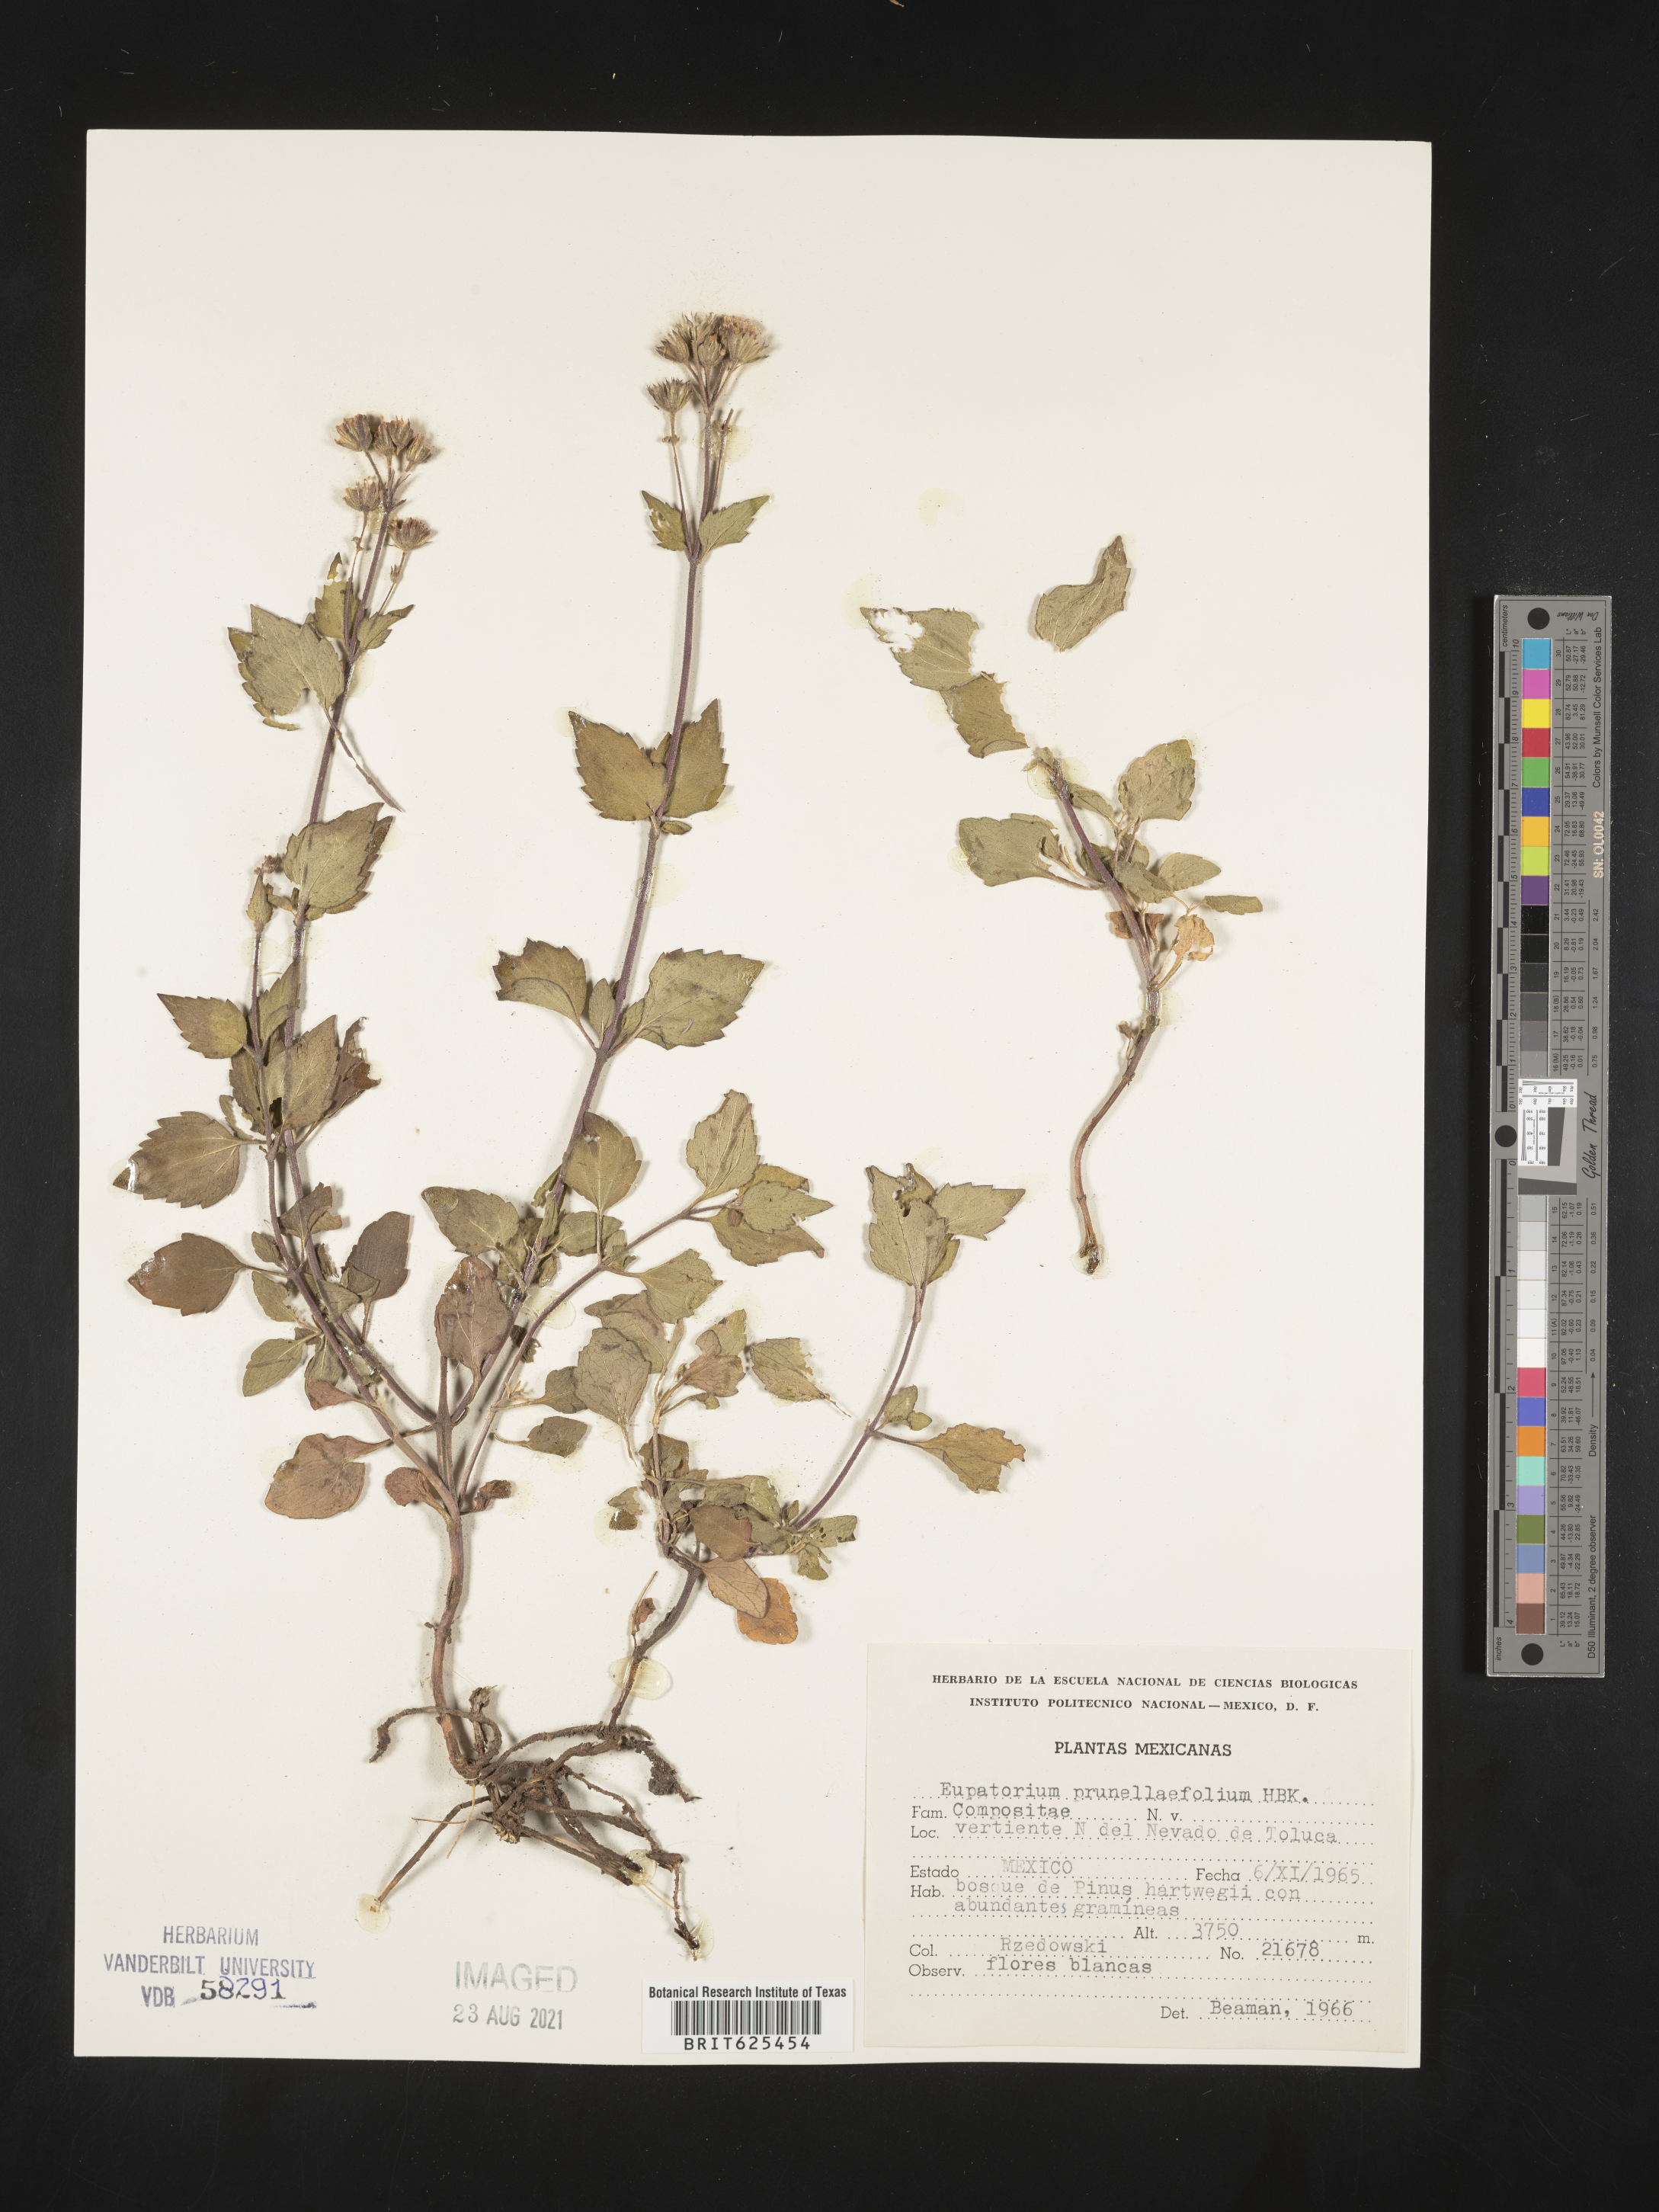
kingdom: Plantae
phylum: Tracheophyta
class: Magnoliopsida
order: Asterales
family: Asteraceae
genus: Eupatorium
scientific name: Eupatorium
